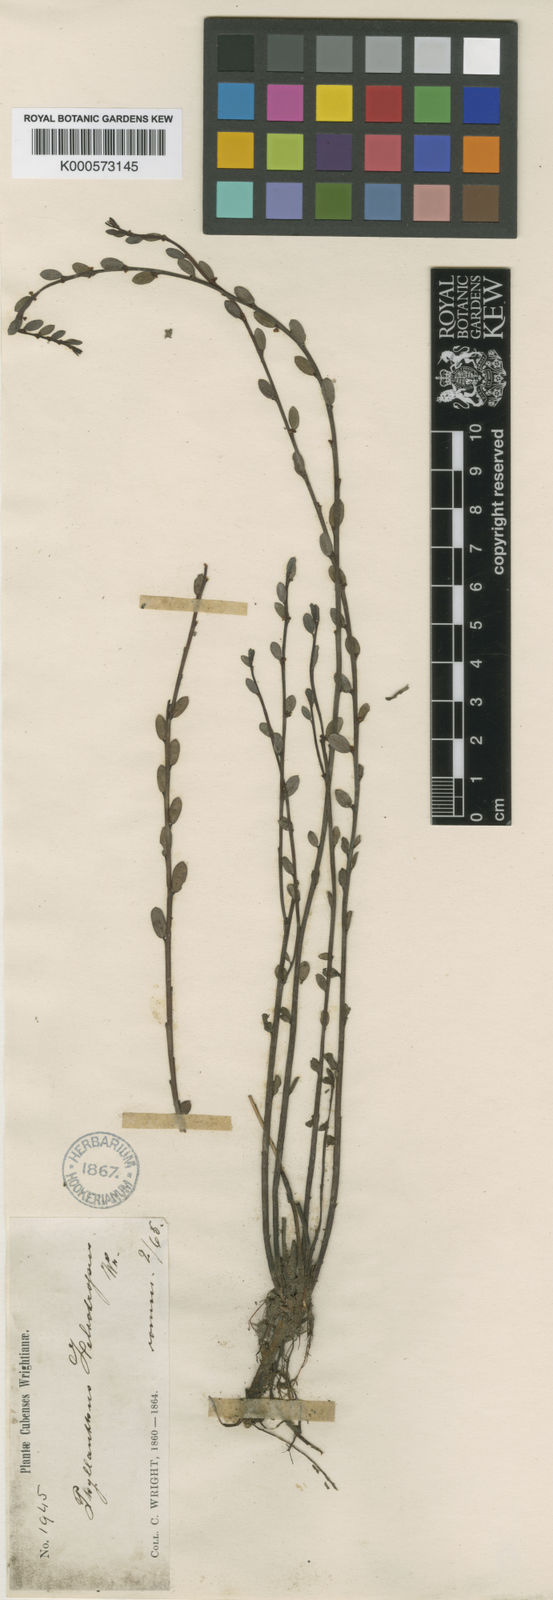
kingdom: Plantae
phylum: Tracheophyta
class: Magnoliopsida
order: Malpighiales
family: Phyllanthaceae
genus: Phyllanthus
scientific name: Phyllanthus heliotropus
